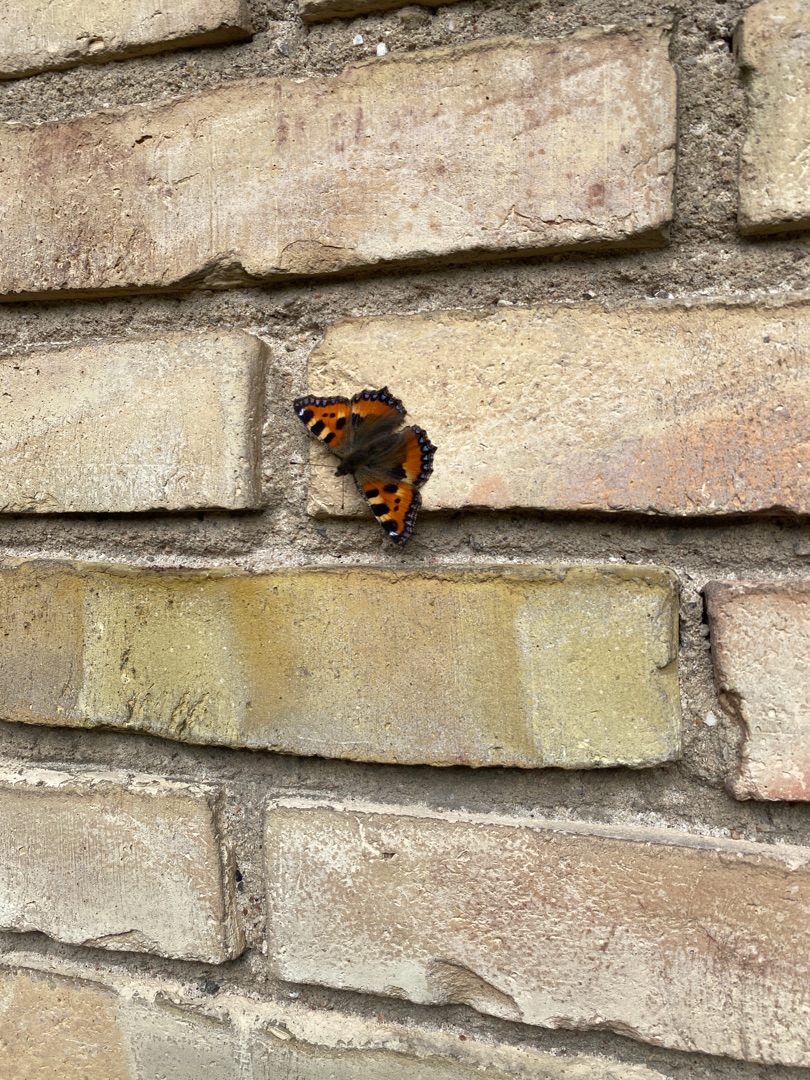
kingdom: Animalia
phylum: Arthropoda
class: Insecta
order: Lepidoptera
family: Nymphalidae
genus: Aglais
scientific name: Aglais urticae
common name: Nældens takvinge
